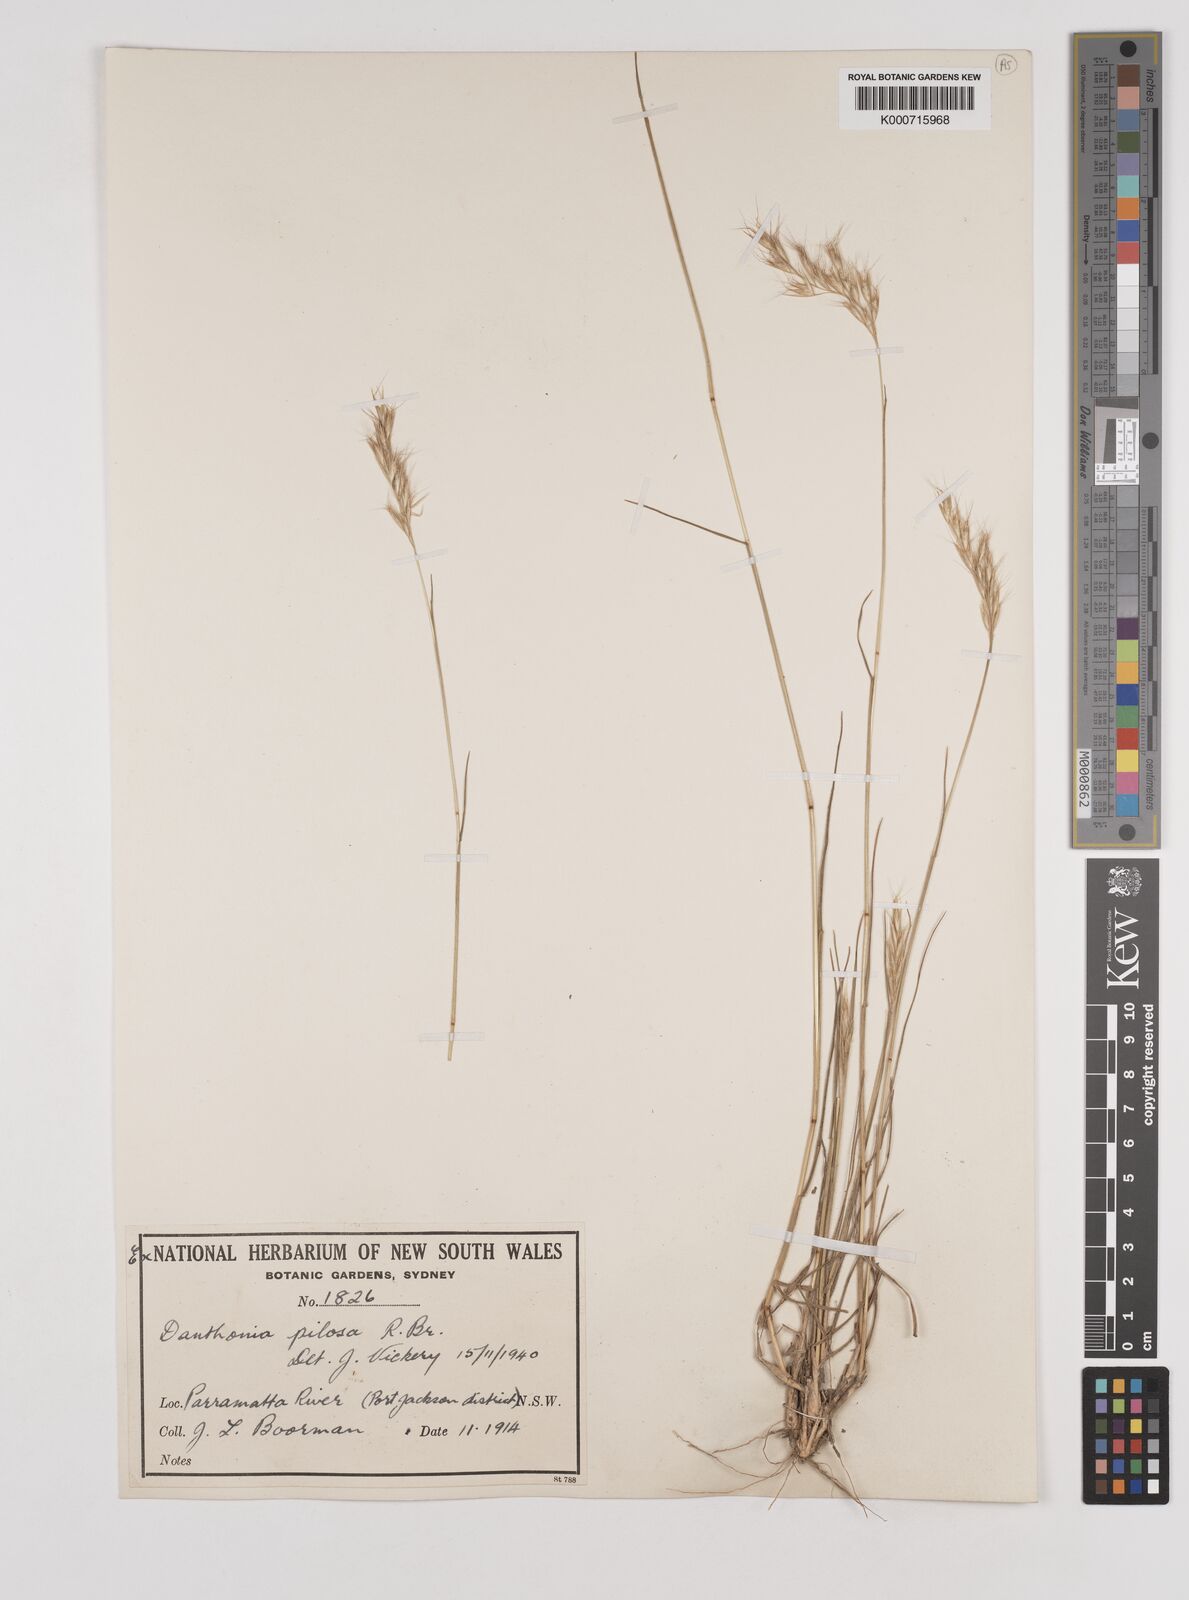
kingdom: Plantae
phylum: Tracheophyta
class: Liliopsida
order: Poales
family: Poaceae
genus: Rytidosperma
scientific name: Rytidosperma pilosum
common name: Hairy wallaby grass
